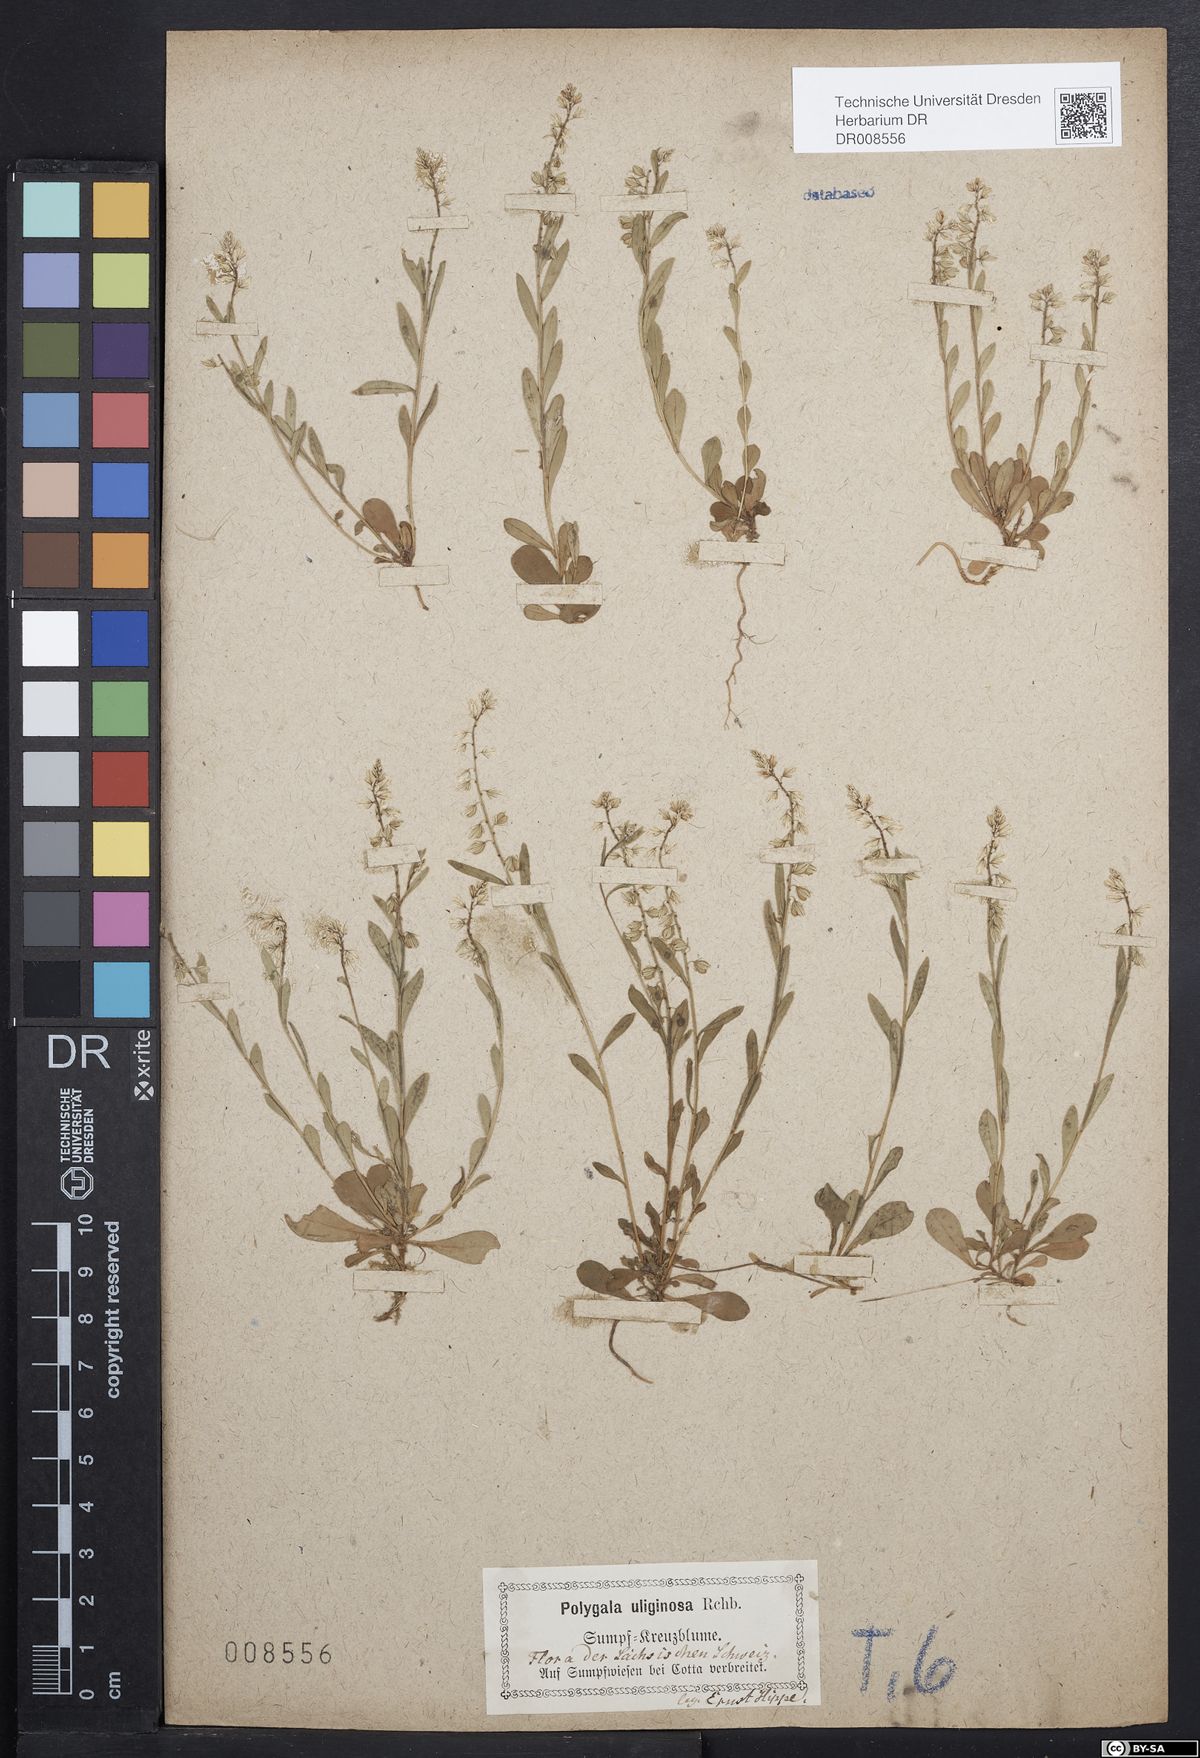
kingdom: Plantae
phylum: Tracheophyta
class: Magnoliopsida
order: Fabales
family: Polygalaceae
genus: Polygala
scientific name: Polygala amarella
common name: Dwarf milkwort
